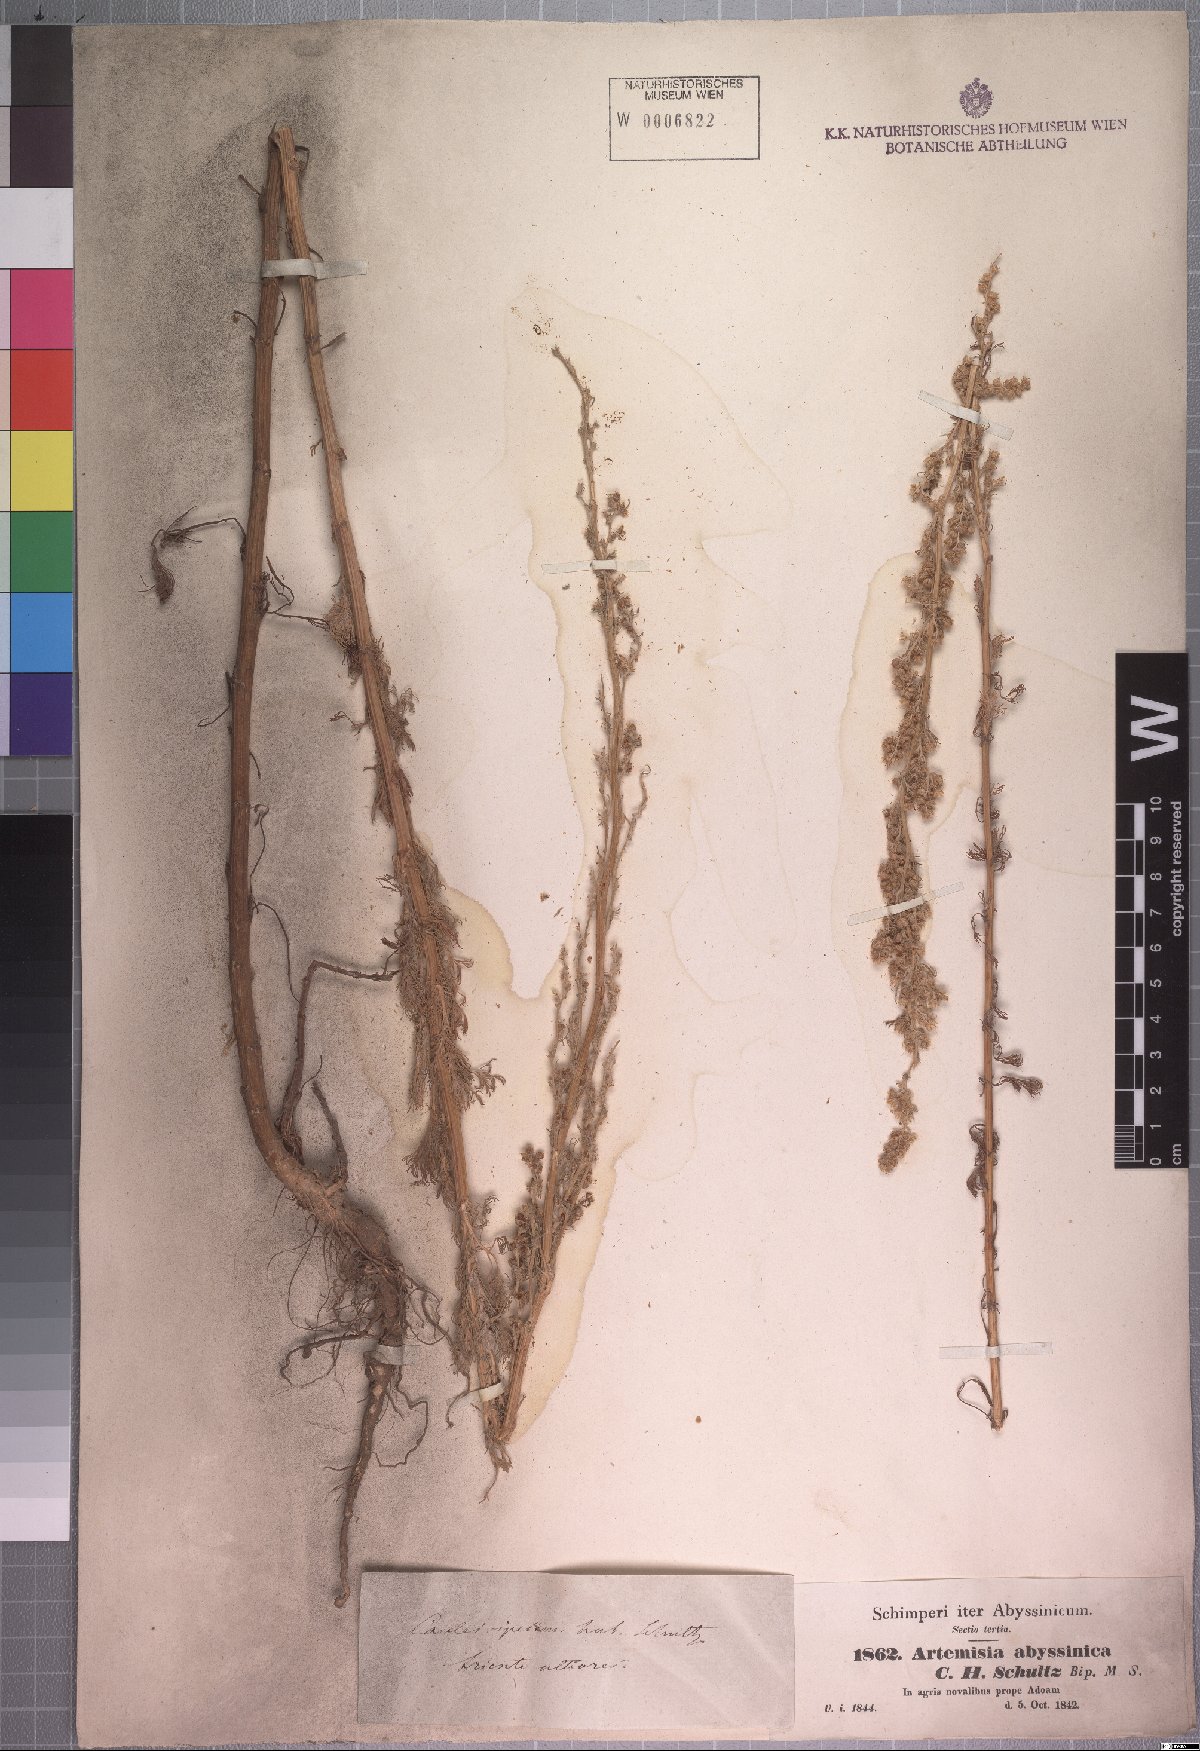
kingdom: Plantae
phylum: Tracheophyta
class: Magnoliopsida
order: Asterales
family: Asteraceae
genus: Artemisia
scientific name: Artemisia abyssinica
